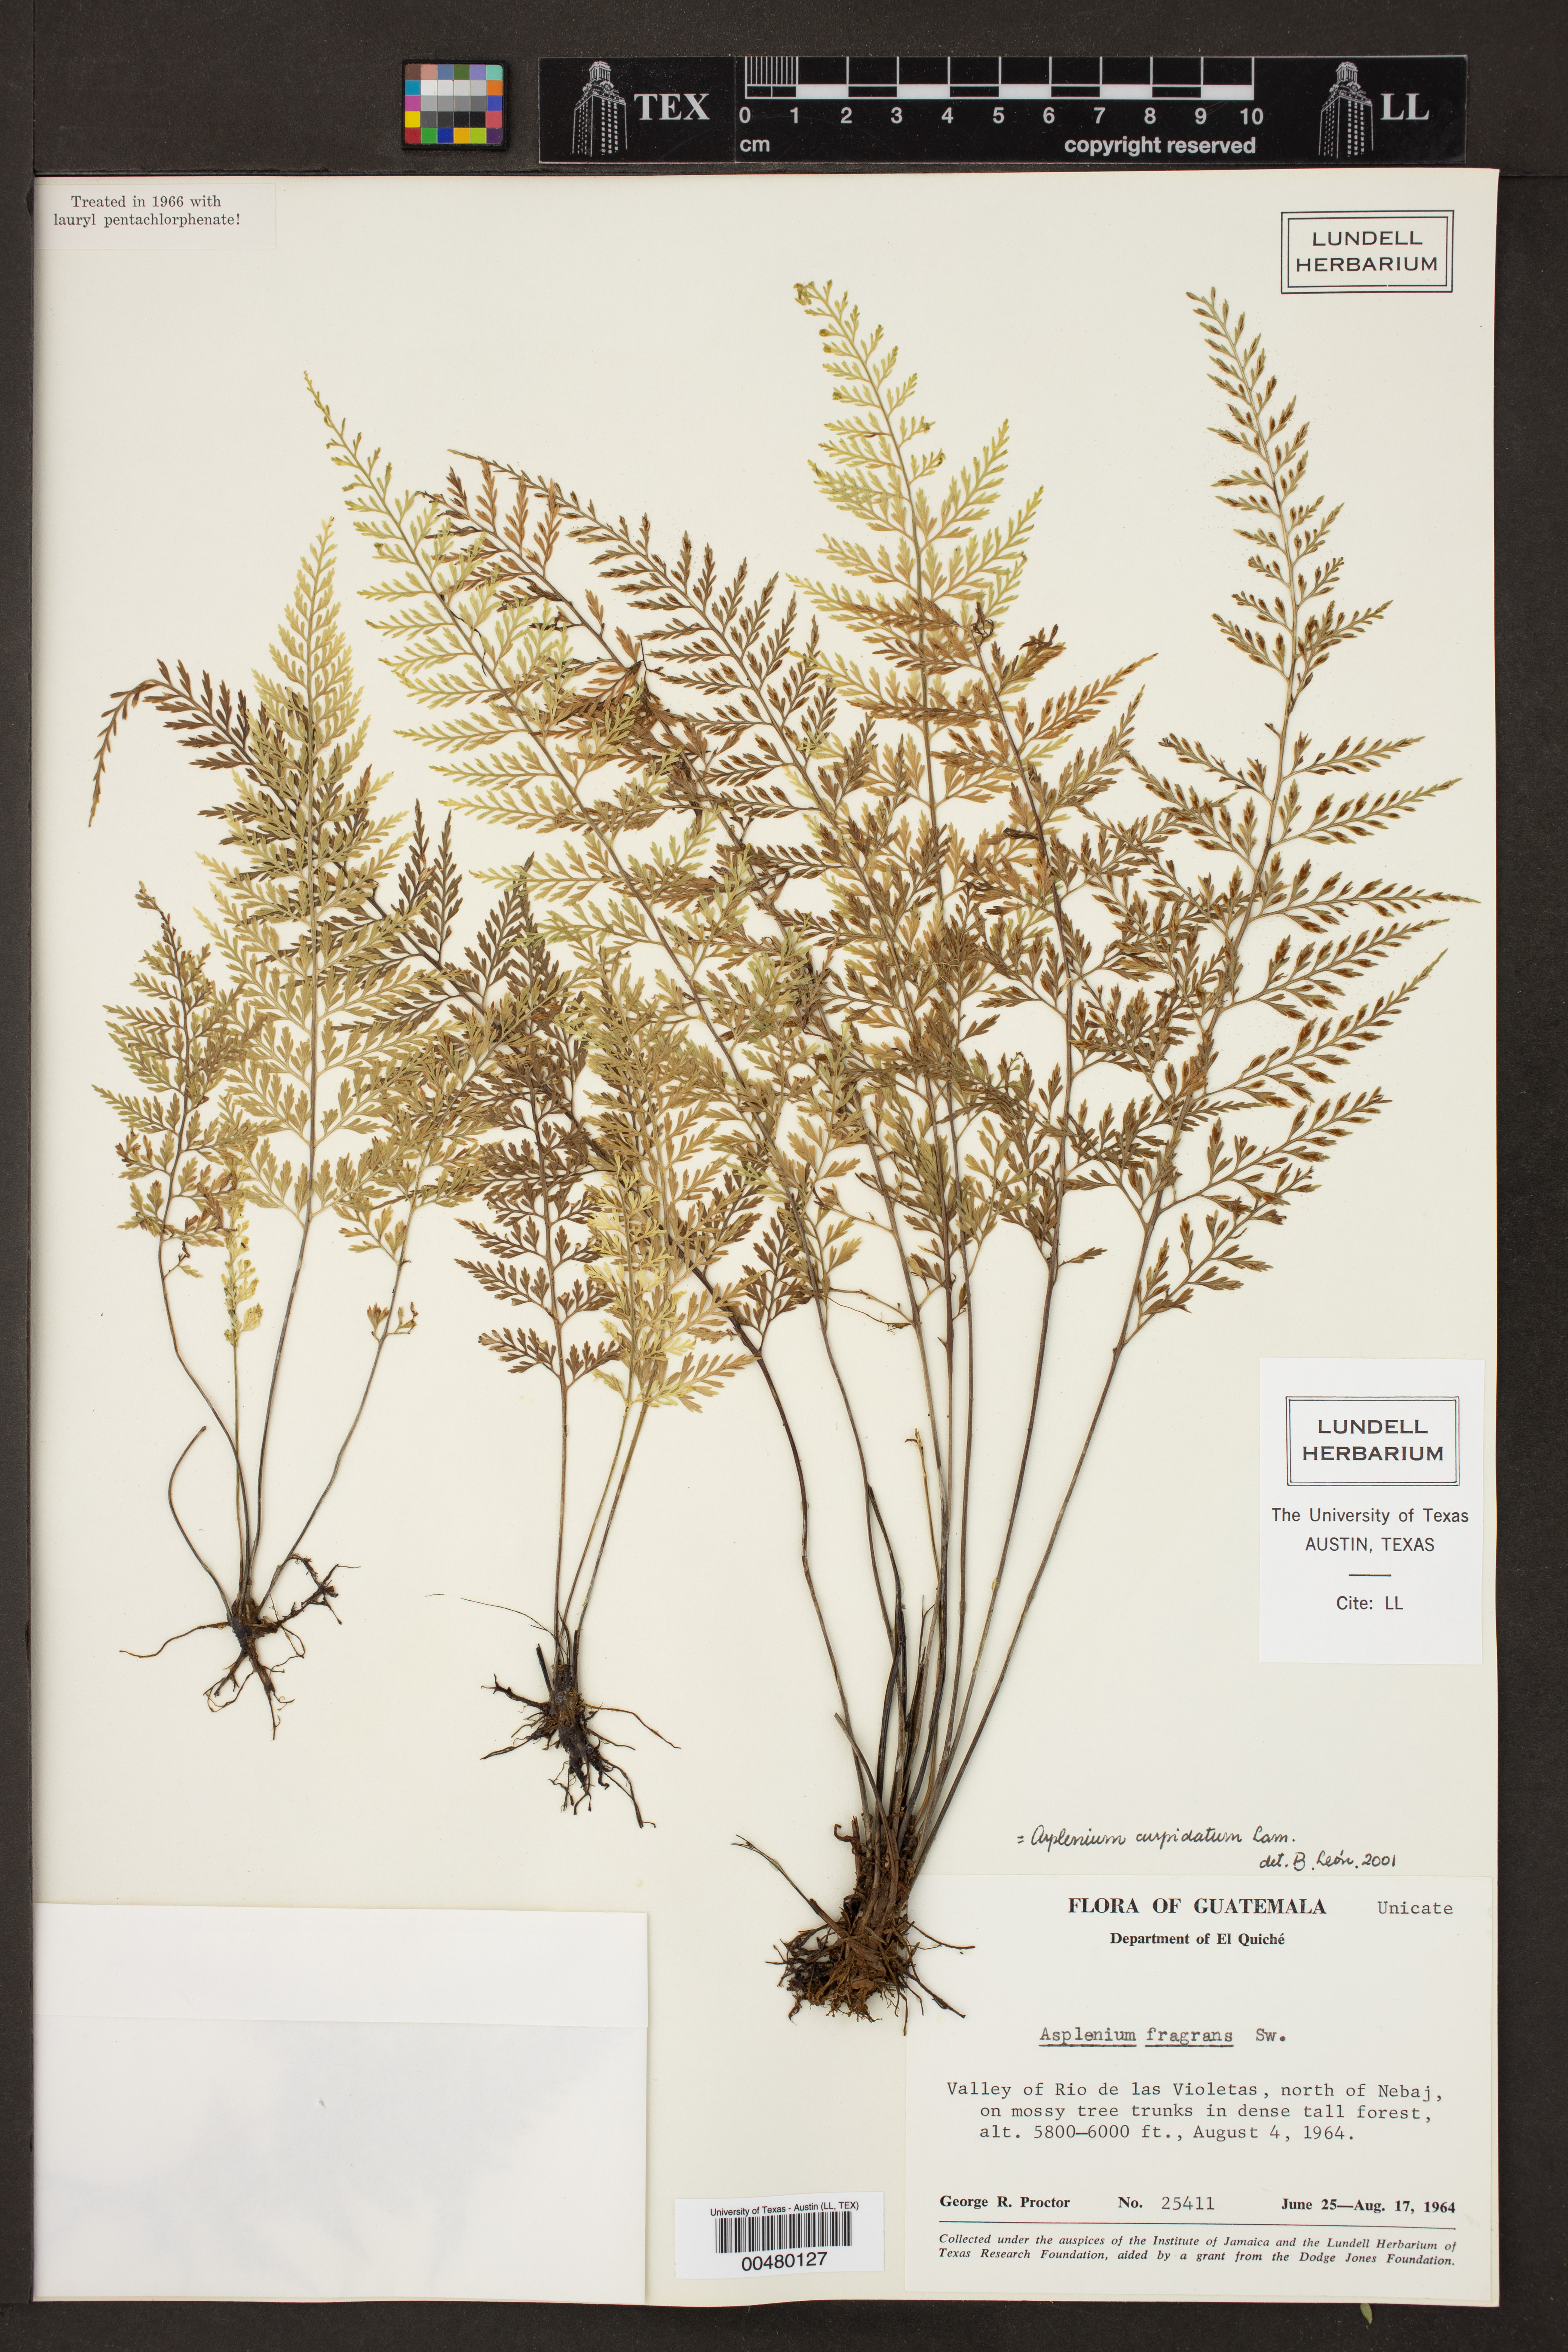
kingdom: Plantae
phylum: Tracheophyta
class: Polypodiopsida
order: Polypodiales
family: Aspleniaceae
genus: Asplenium
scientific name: Asplenium cuspidatum
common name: Eared spleenwort
